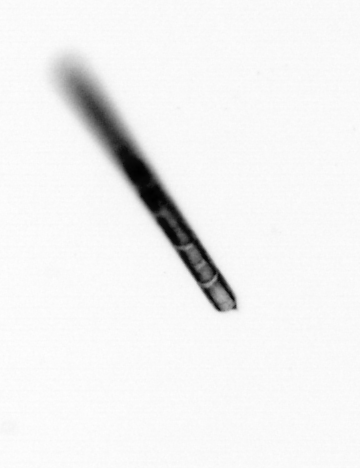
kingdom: Chromista
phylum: Ochrophyta
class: Bacillariophyceae
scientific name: Bacillariophyceae
